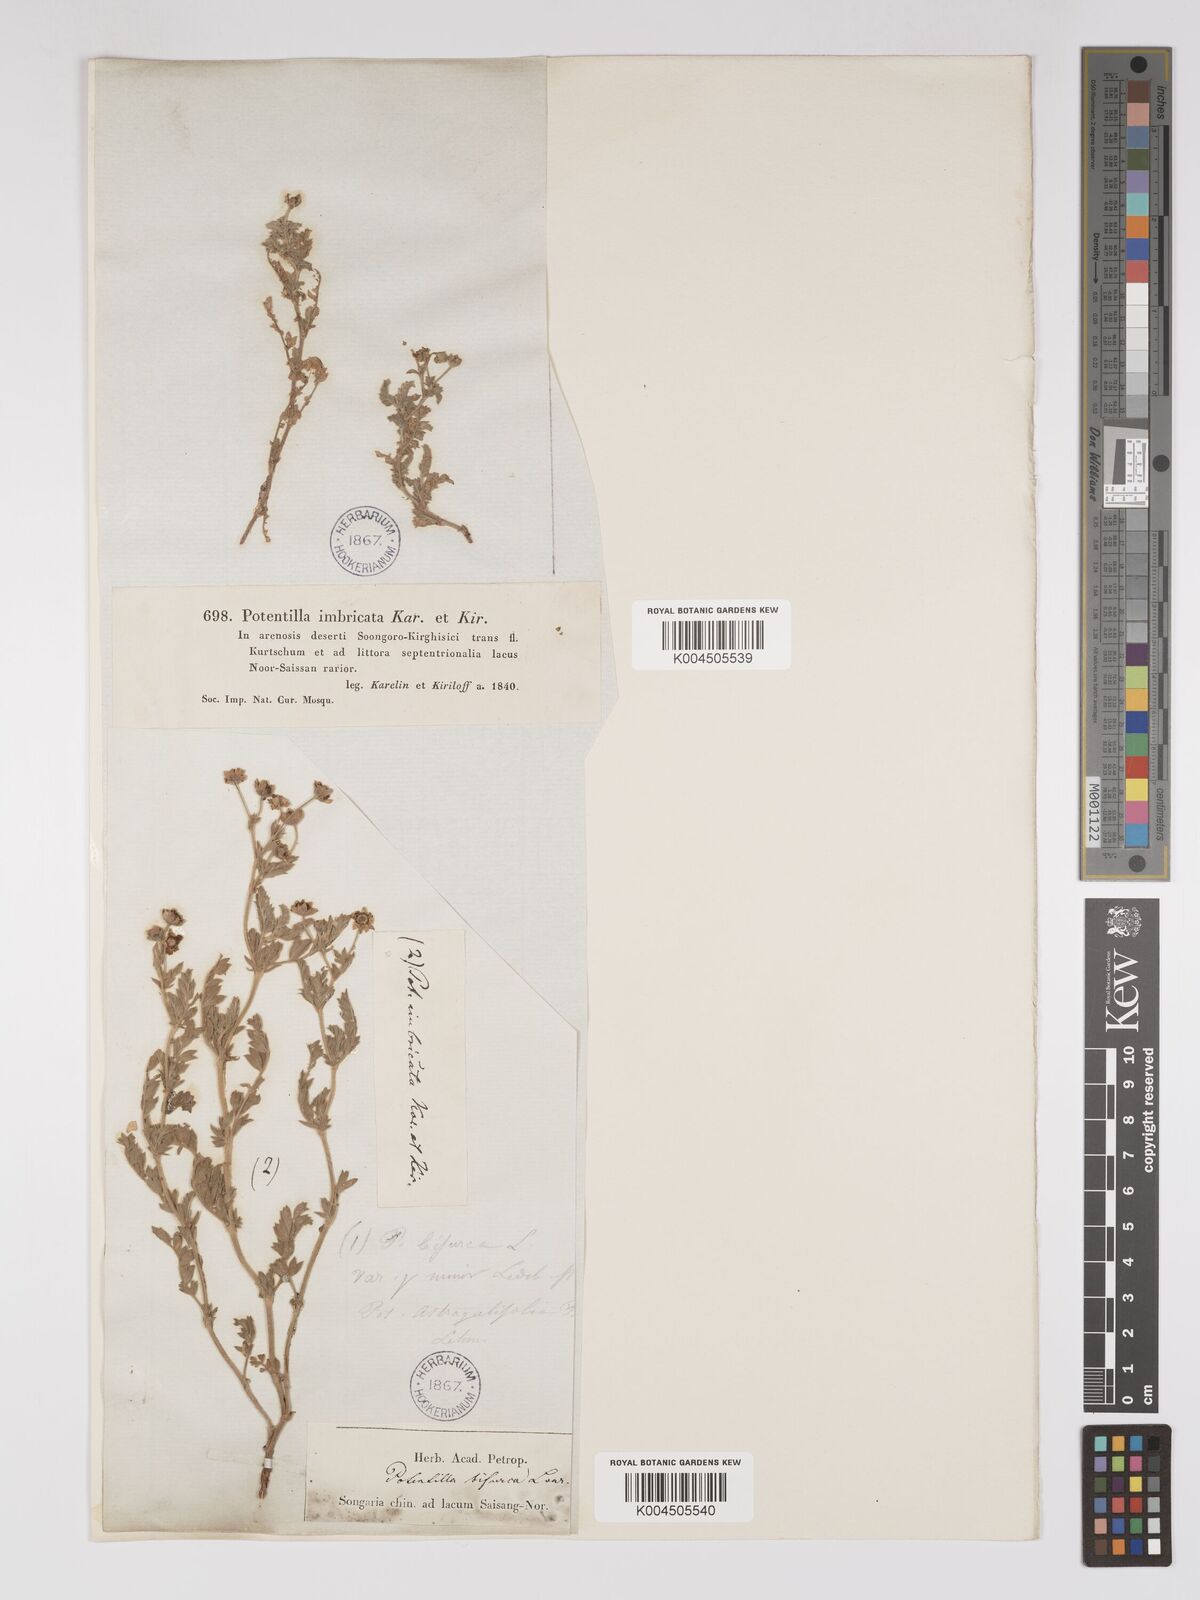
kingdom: Plantae
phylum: Tracheophyta
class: Magnoliopsida
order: Rosales
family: Rosaceae
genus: Sibbaldianthe
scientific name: Sibbaldianthe bifurca
